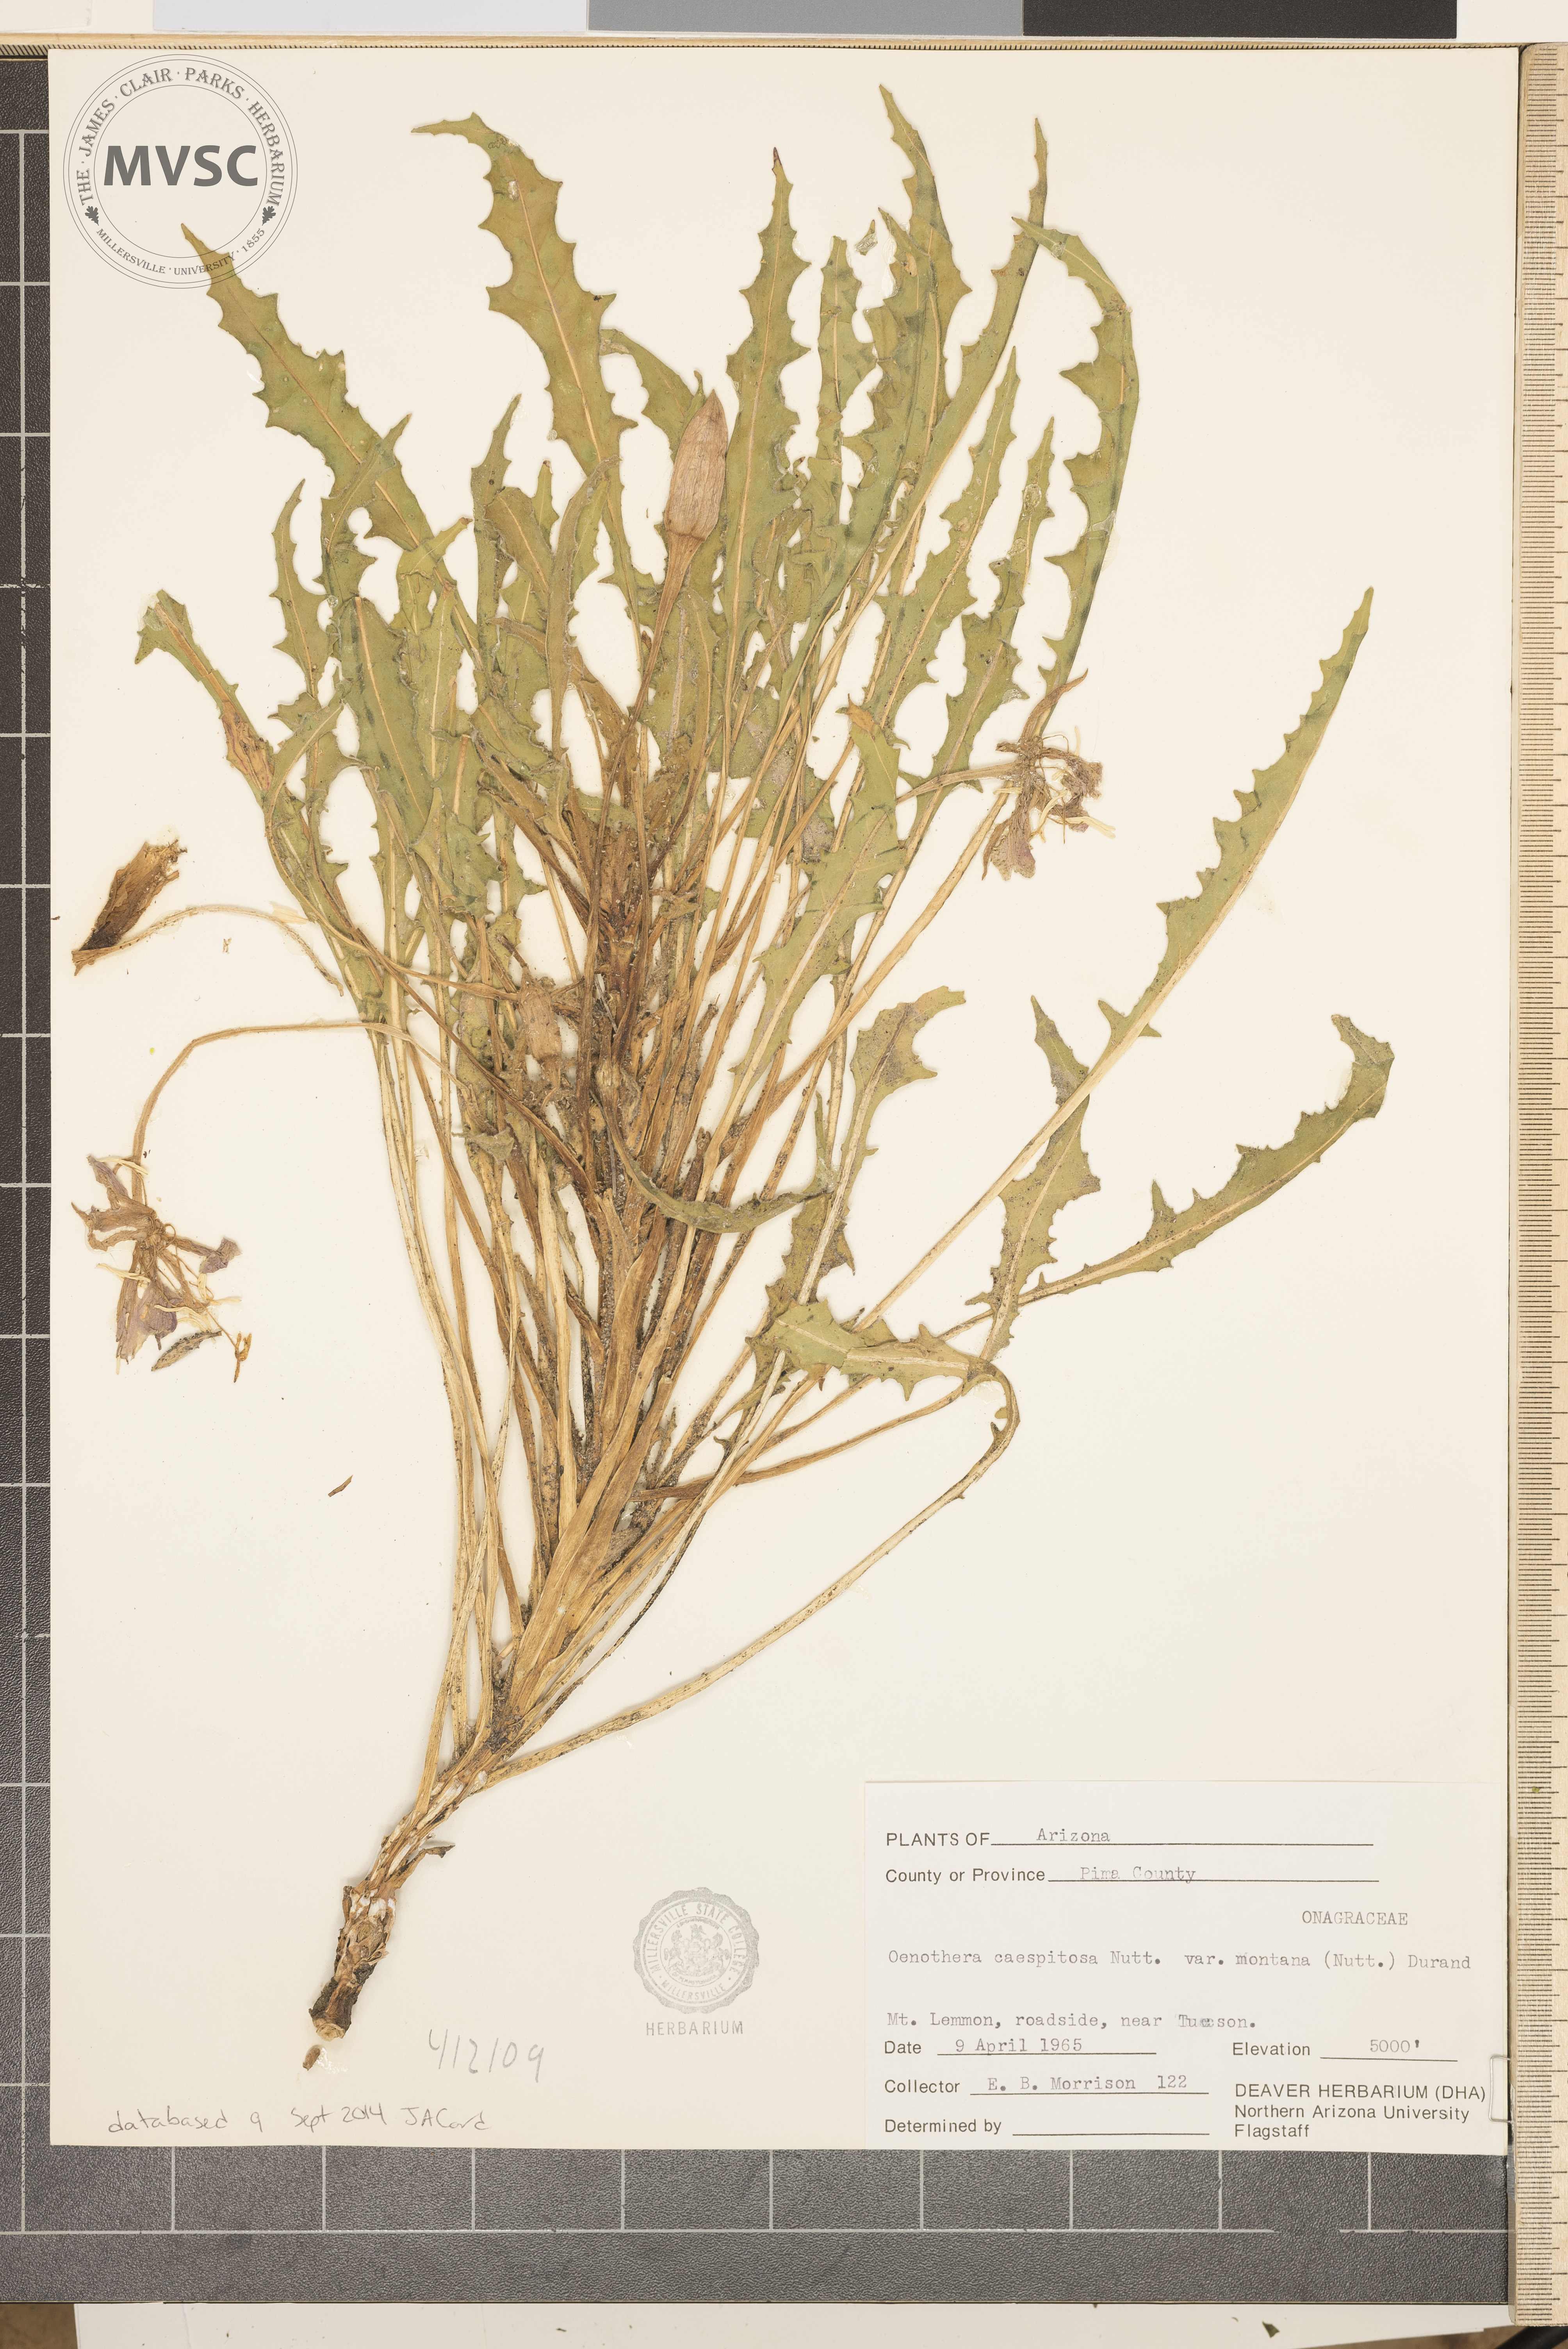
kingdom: Plantae
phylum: Tracheophyta
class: Magnoliopsida
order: Myrtales
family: Onagraceae
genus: Oenothera
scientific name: Oenothera cespitosa
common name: Tufted evening-primrose
